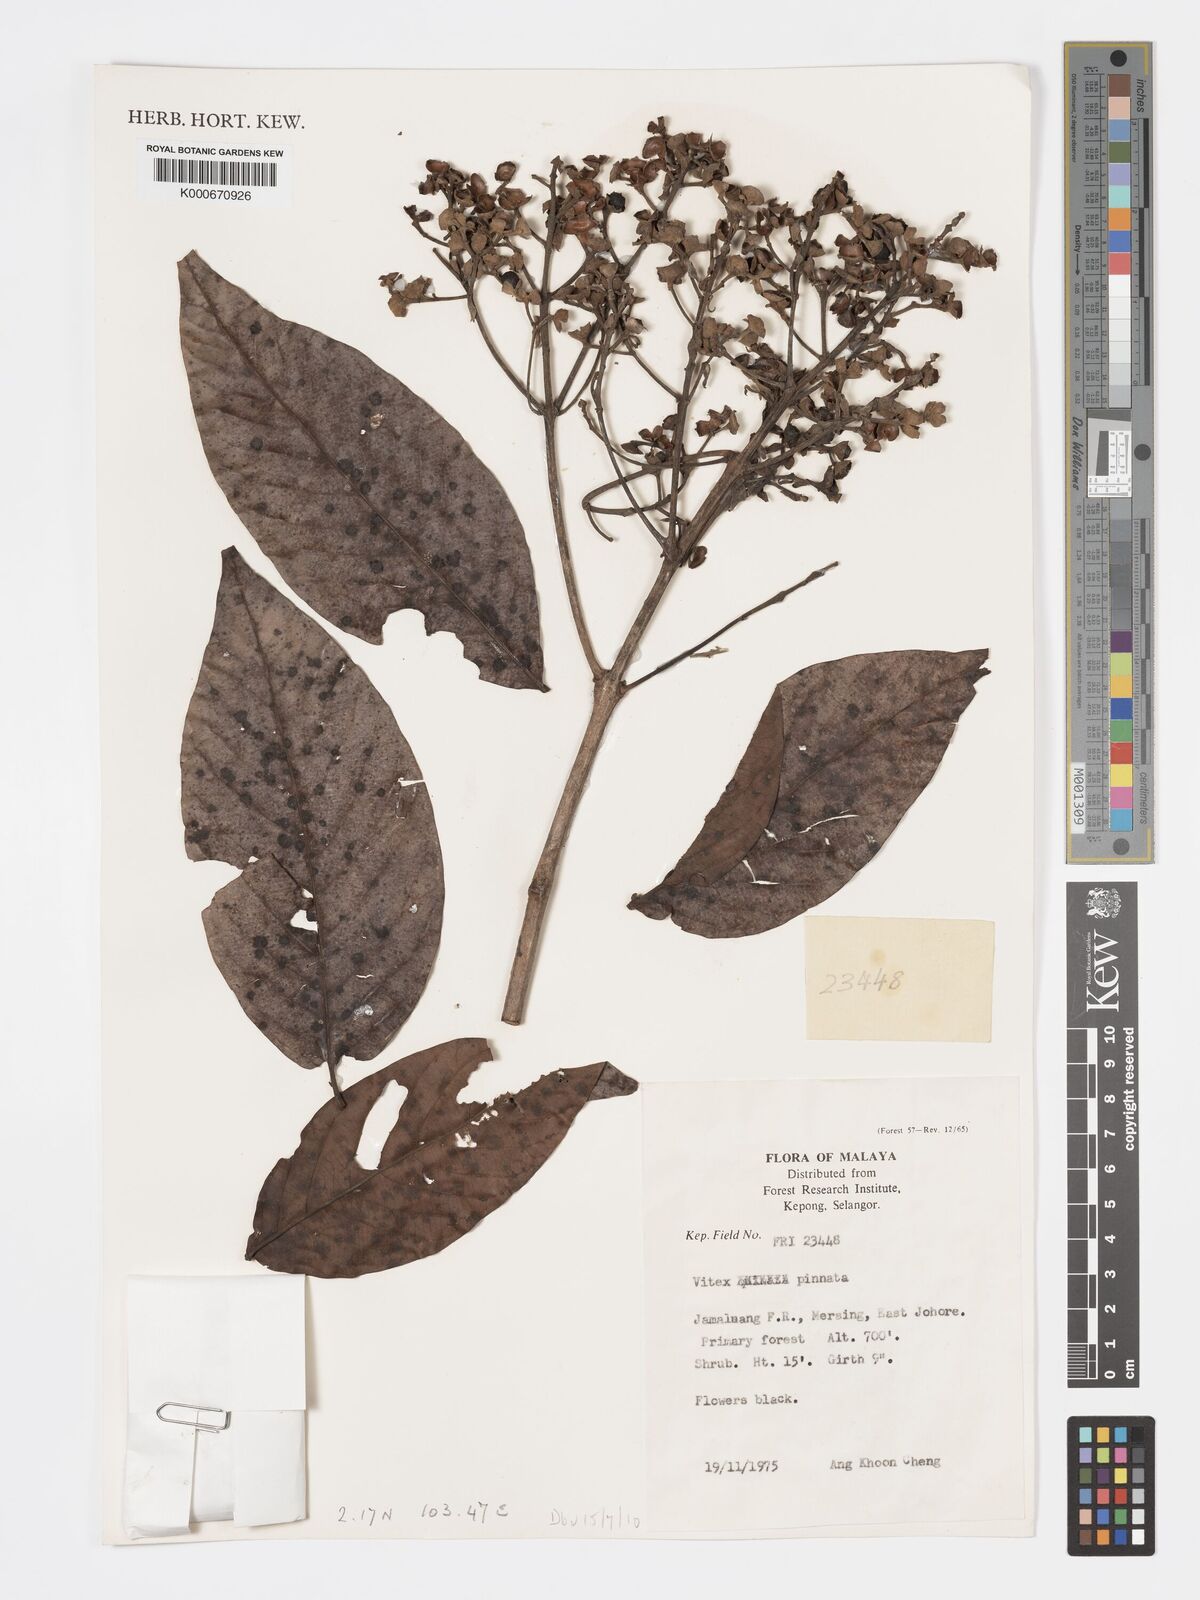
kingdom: Plantae
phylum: Tracheophyta
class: Magnoliopsida
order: Lamiales
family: Lamiaceae
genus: Vitex
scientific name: Vitex pinnata
